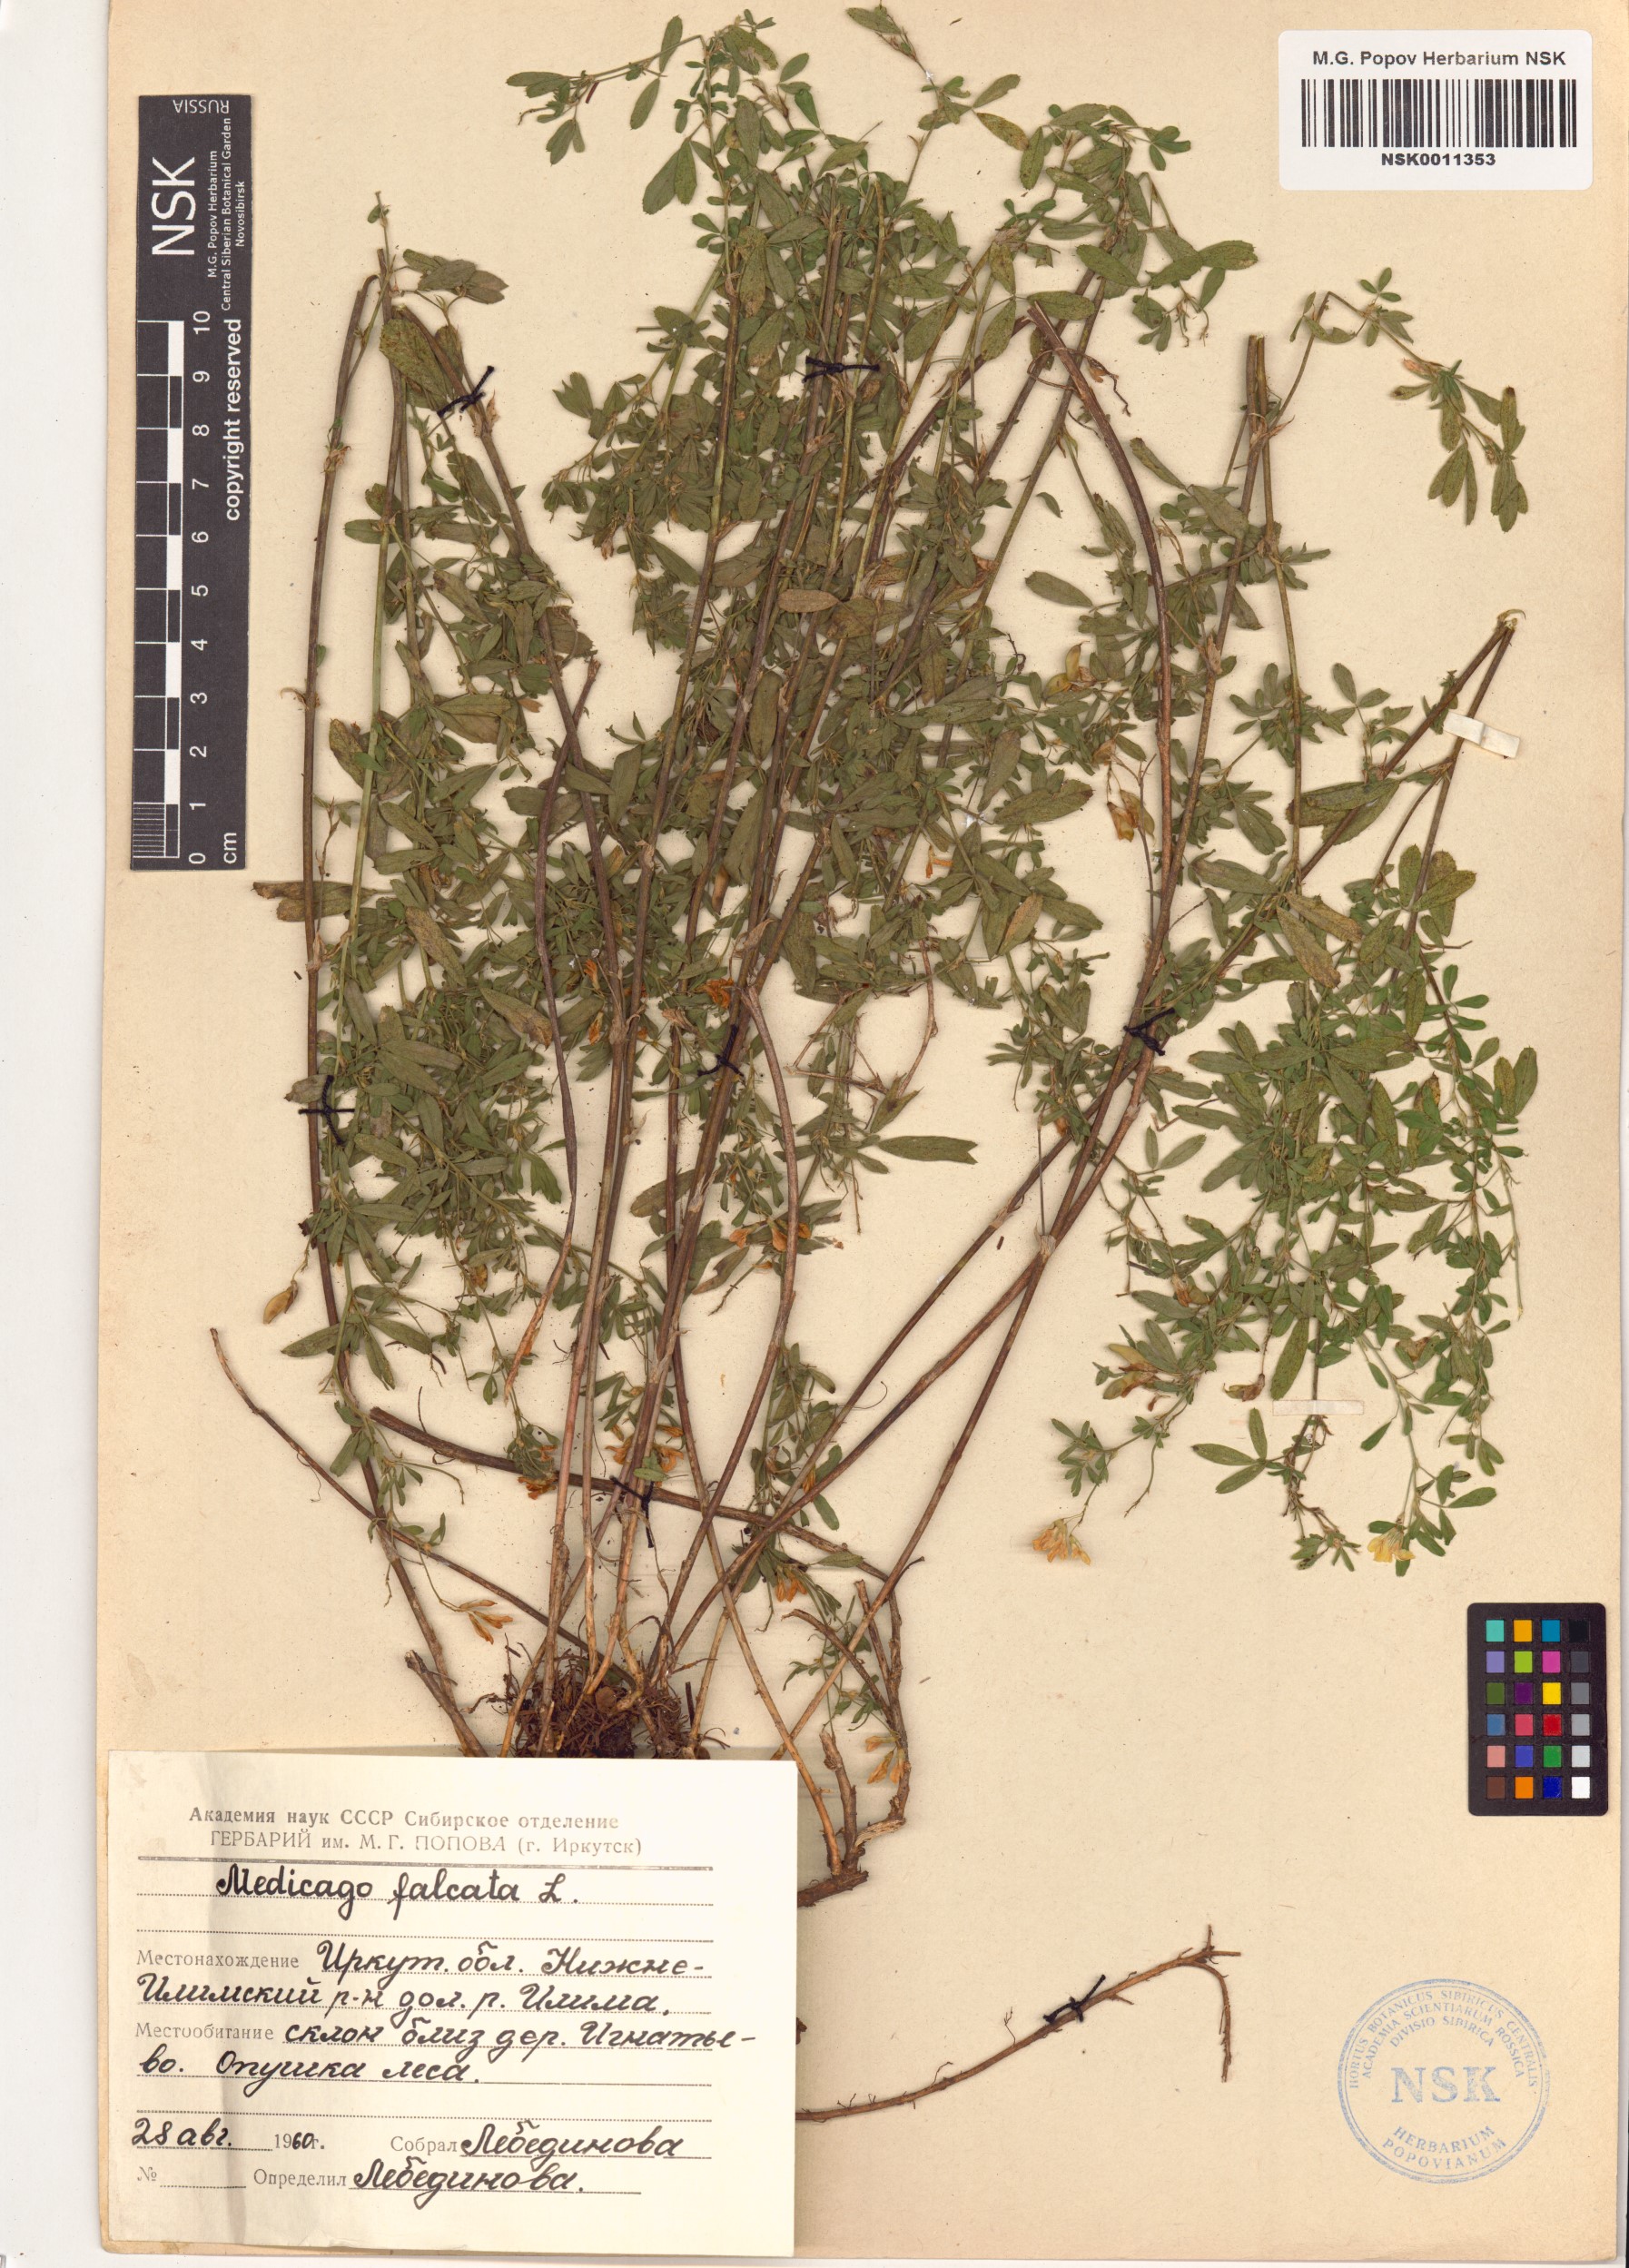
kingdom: Plantae
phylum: Tracheophyta
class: Magnoliopsida
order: Fabales
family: Fabaceae
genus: Medicago
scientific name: Medicago falcata
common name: Sickle medick
